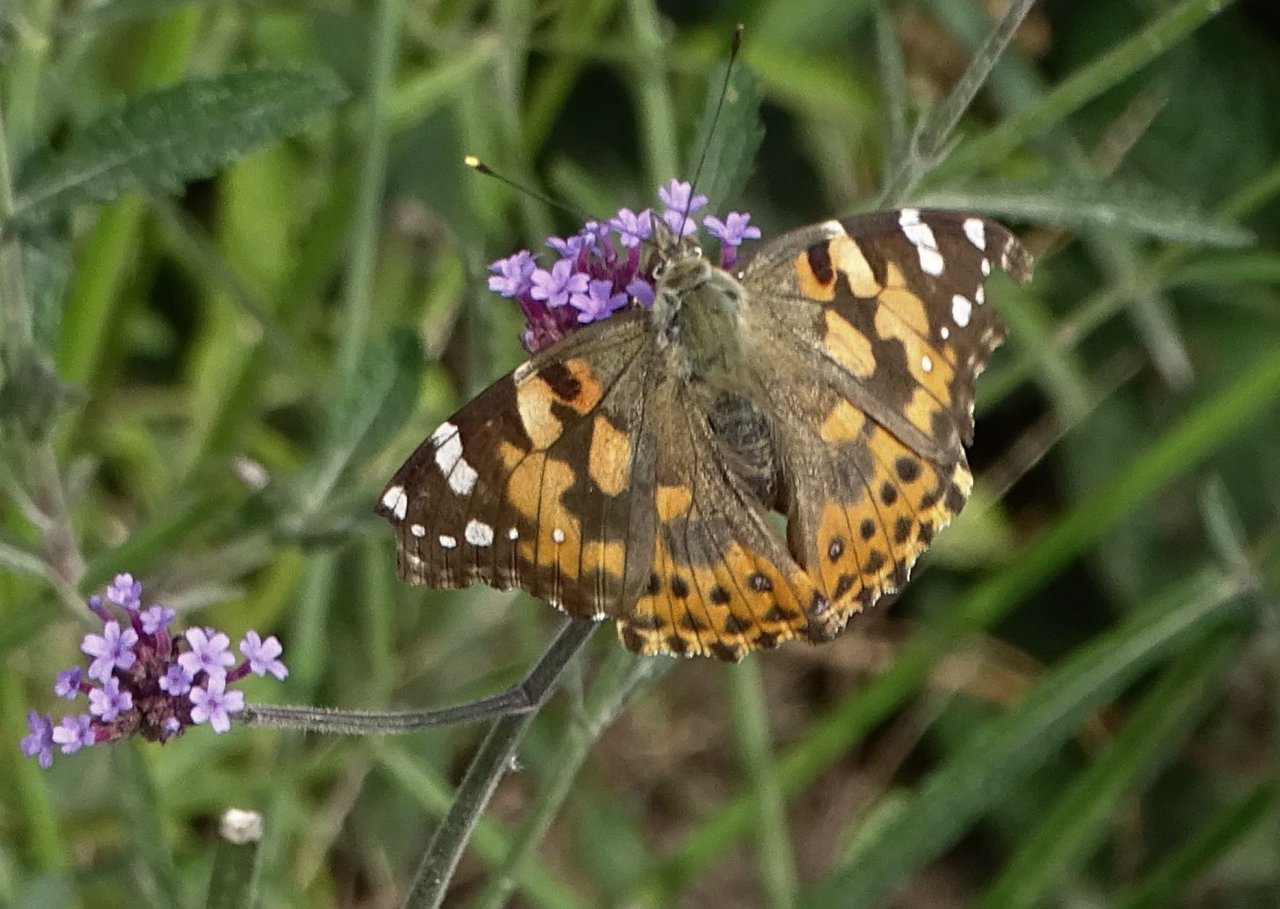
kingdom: Animalia
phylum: Arthropoda
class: Insecta
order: Lepidoptera
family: Nymphalidae
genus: Vanessa
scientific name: Vanessa cardui
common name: Painted Lady
